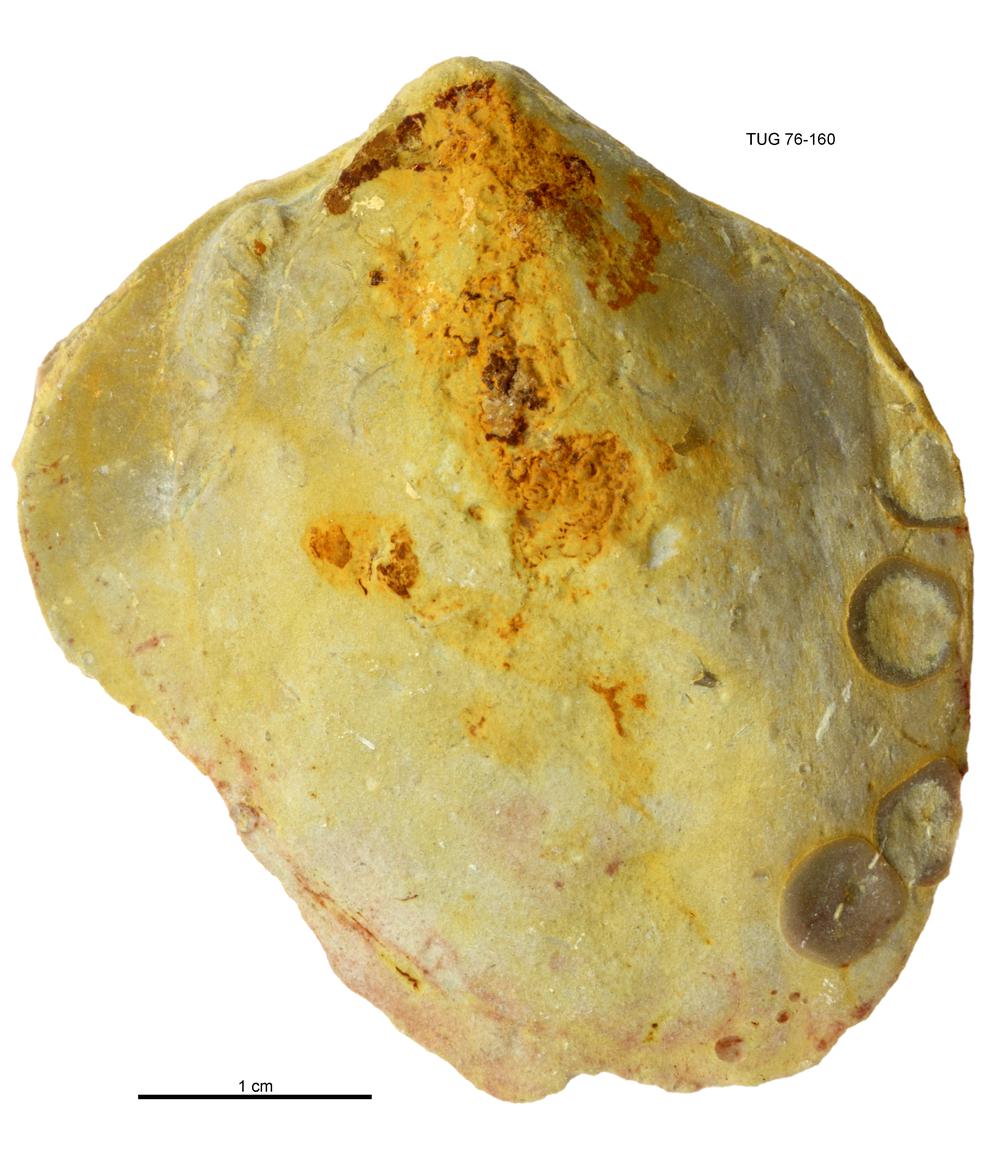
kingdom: Animalia
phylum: Mollusca
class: Bivalvia
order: Cyrtodontida
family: Cyrtodontidae
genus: Cypricardites
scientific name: Cypricardites
